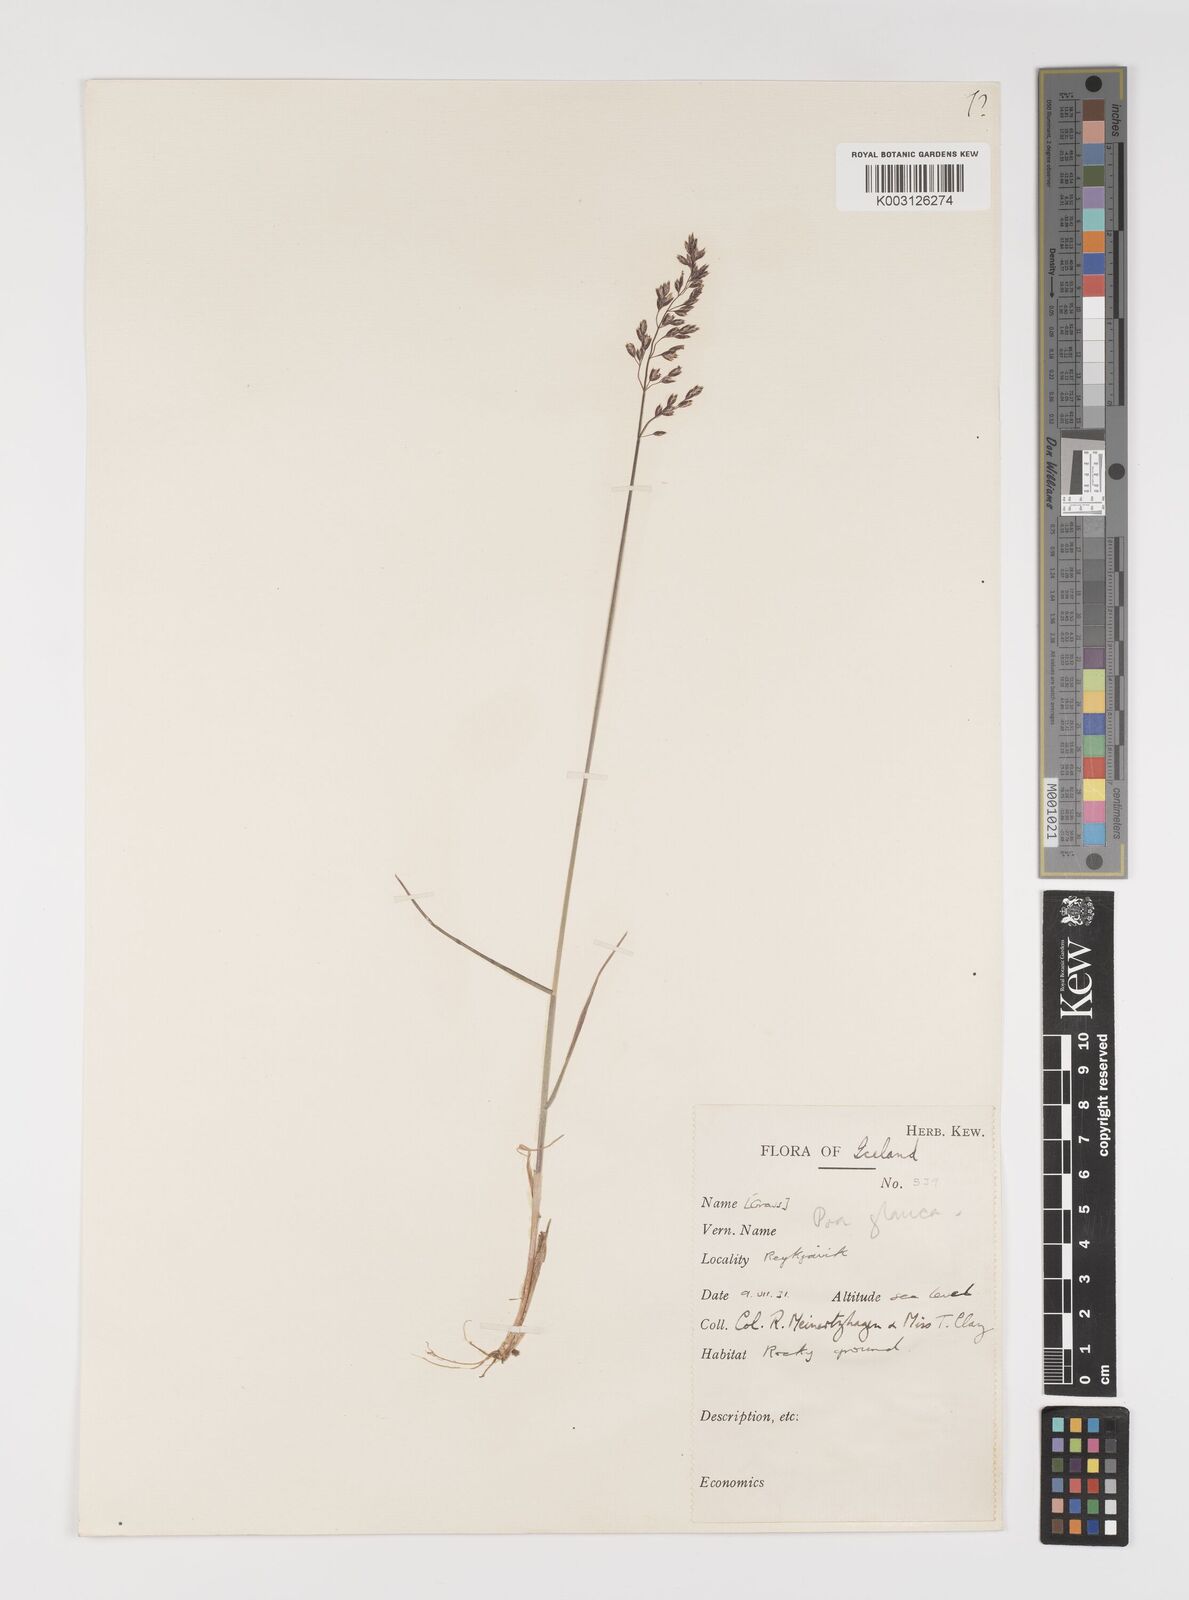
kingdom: Plantae
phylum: Tracheophyta
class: Liliopsida
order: Poales
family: Poaceae
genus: Poa
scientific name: Poa glauca
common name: Glaucous bluegrass
